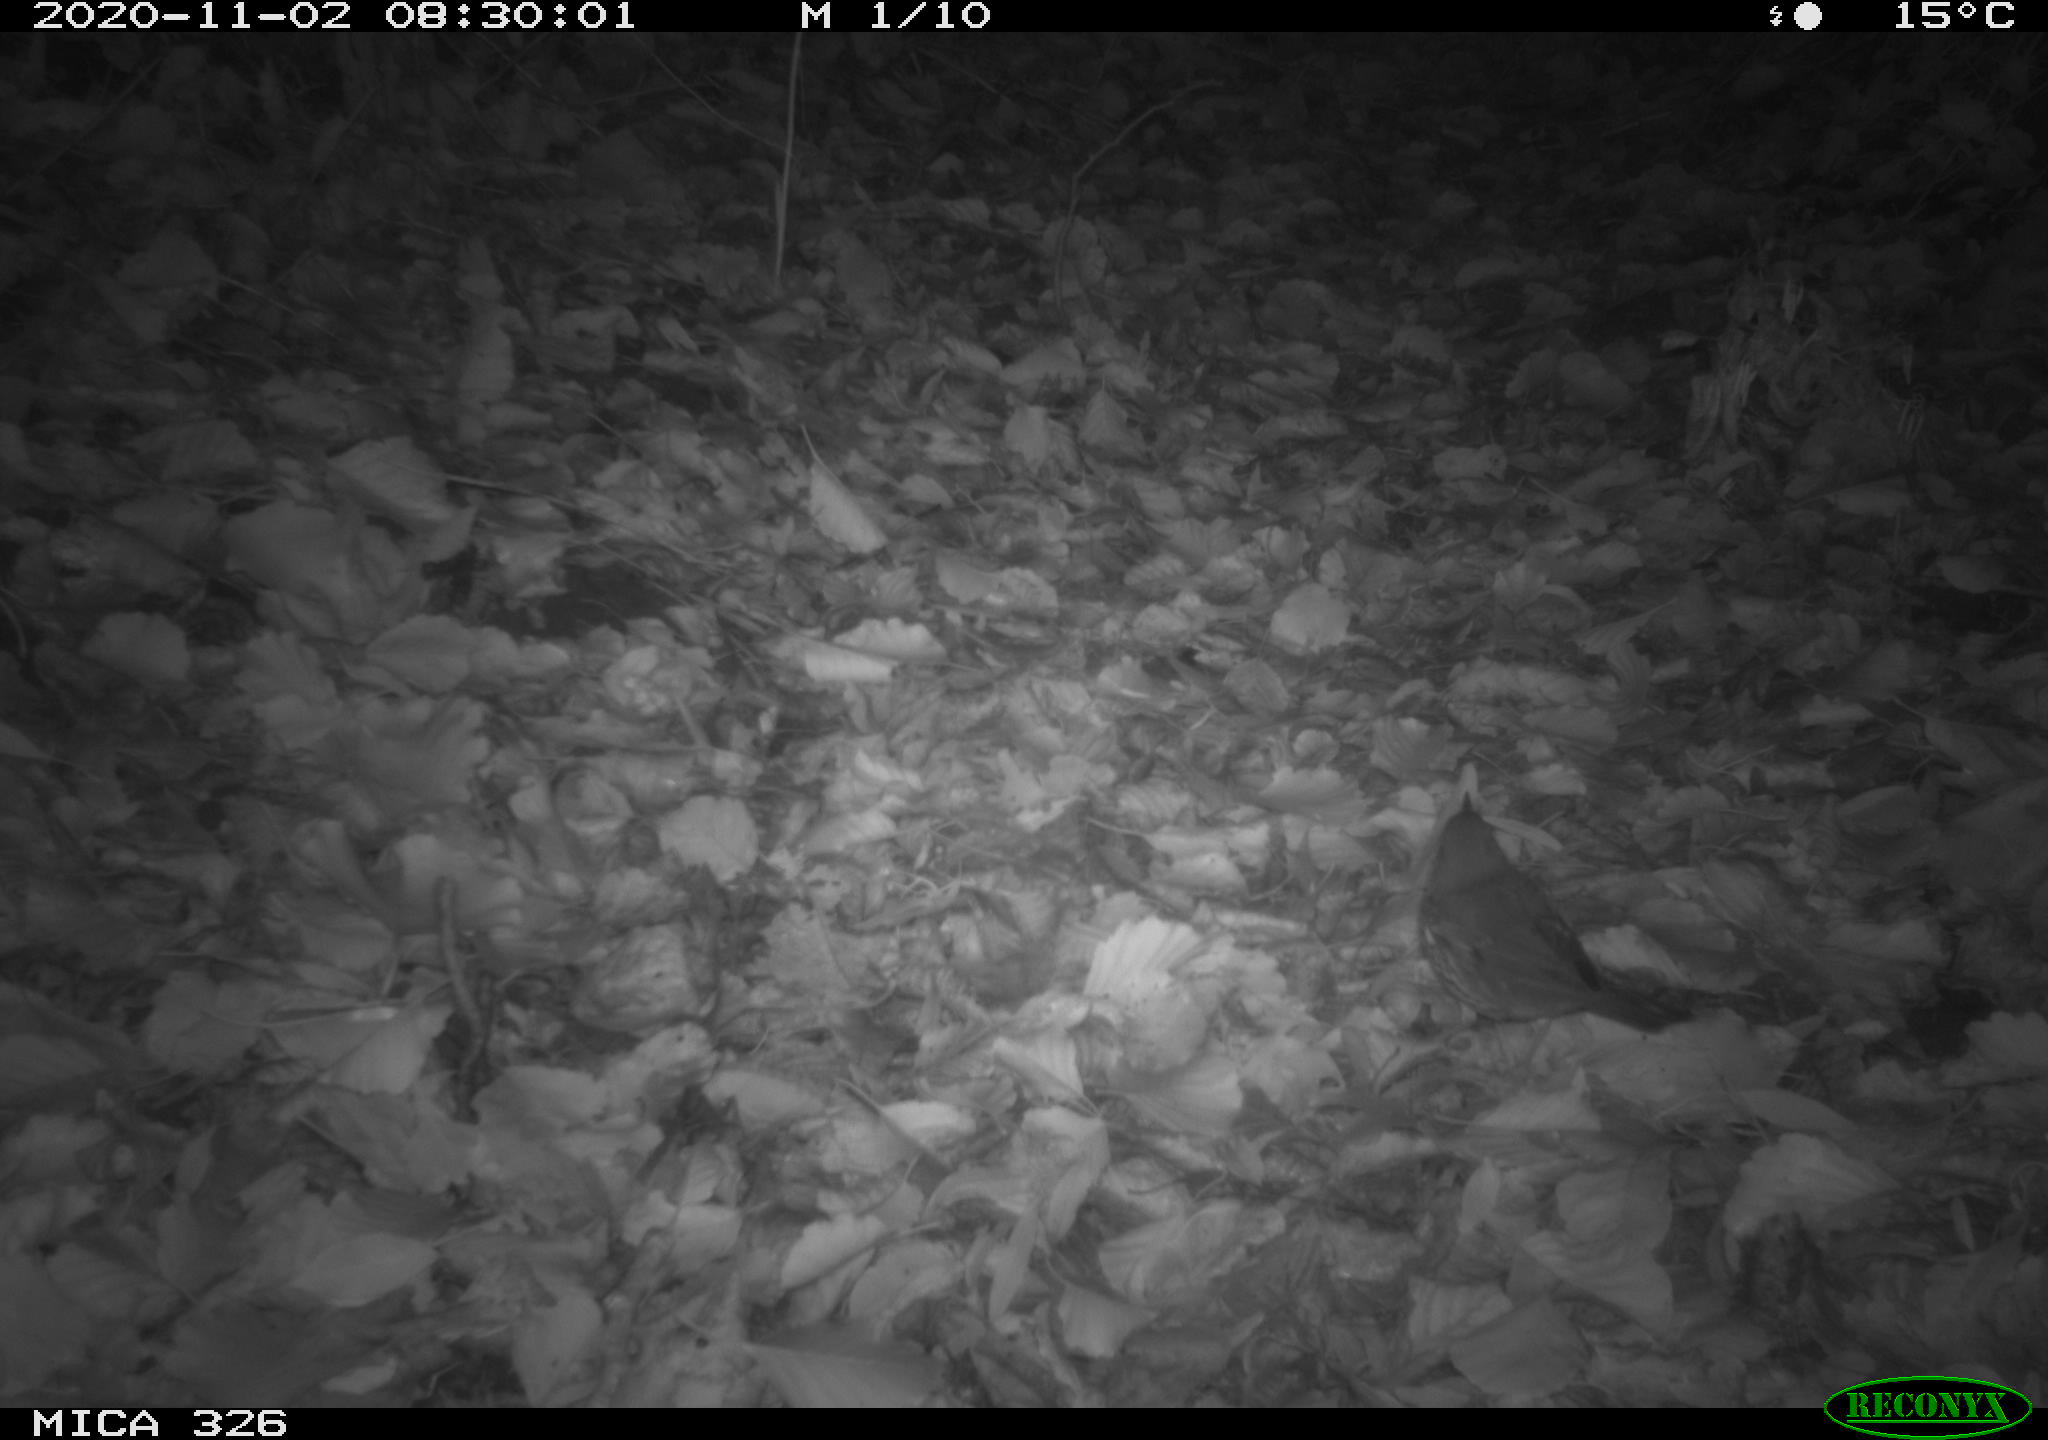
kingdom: Animalia
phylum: Chordata
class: Aves
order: Passeriformes
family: Turdidae
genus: Turdus
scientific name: Turdus philomelos
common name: Song thrush
